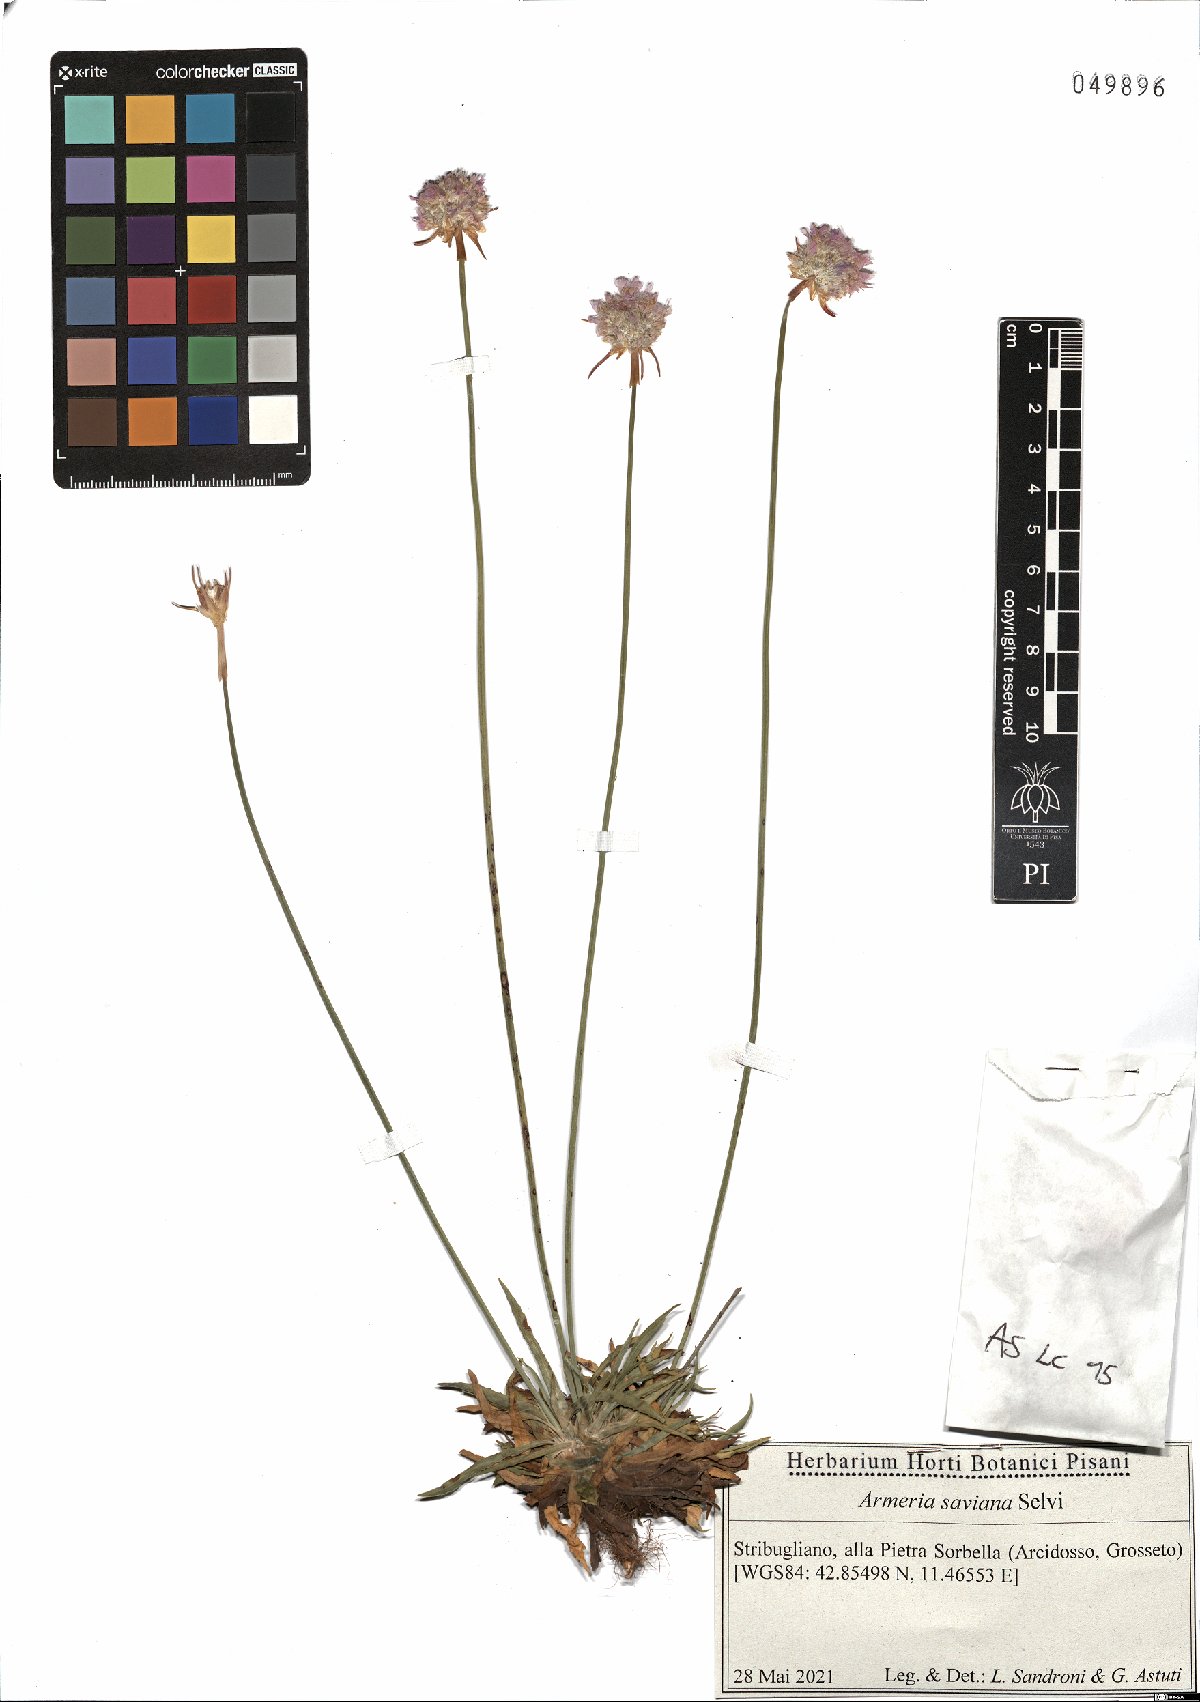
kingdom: Plantae
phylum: Tracheophyta
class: Magnoliopsida
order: Caryophyllales
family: Plumbaginaceae
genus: Armeria
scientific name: Armeria saviana
